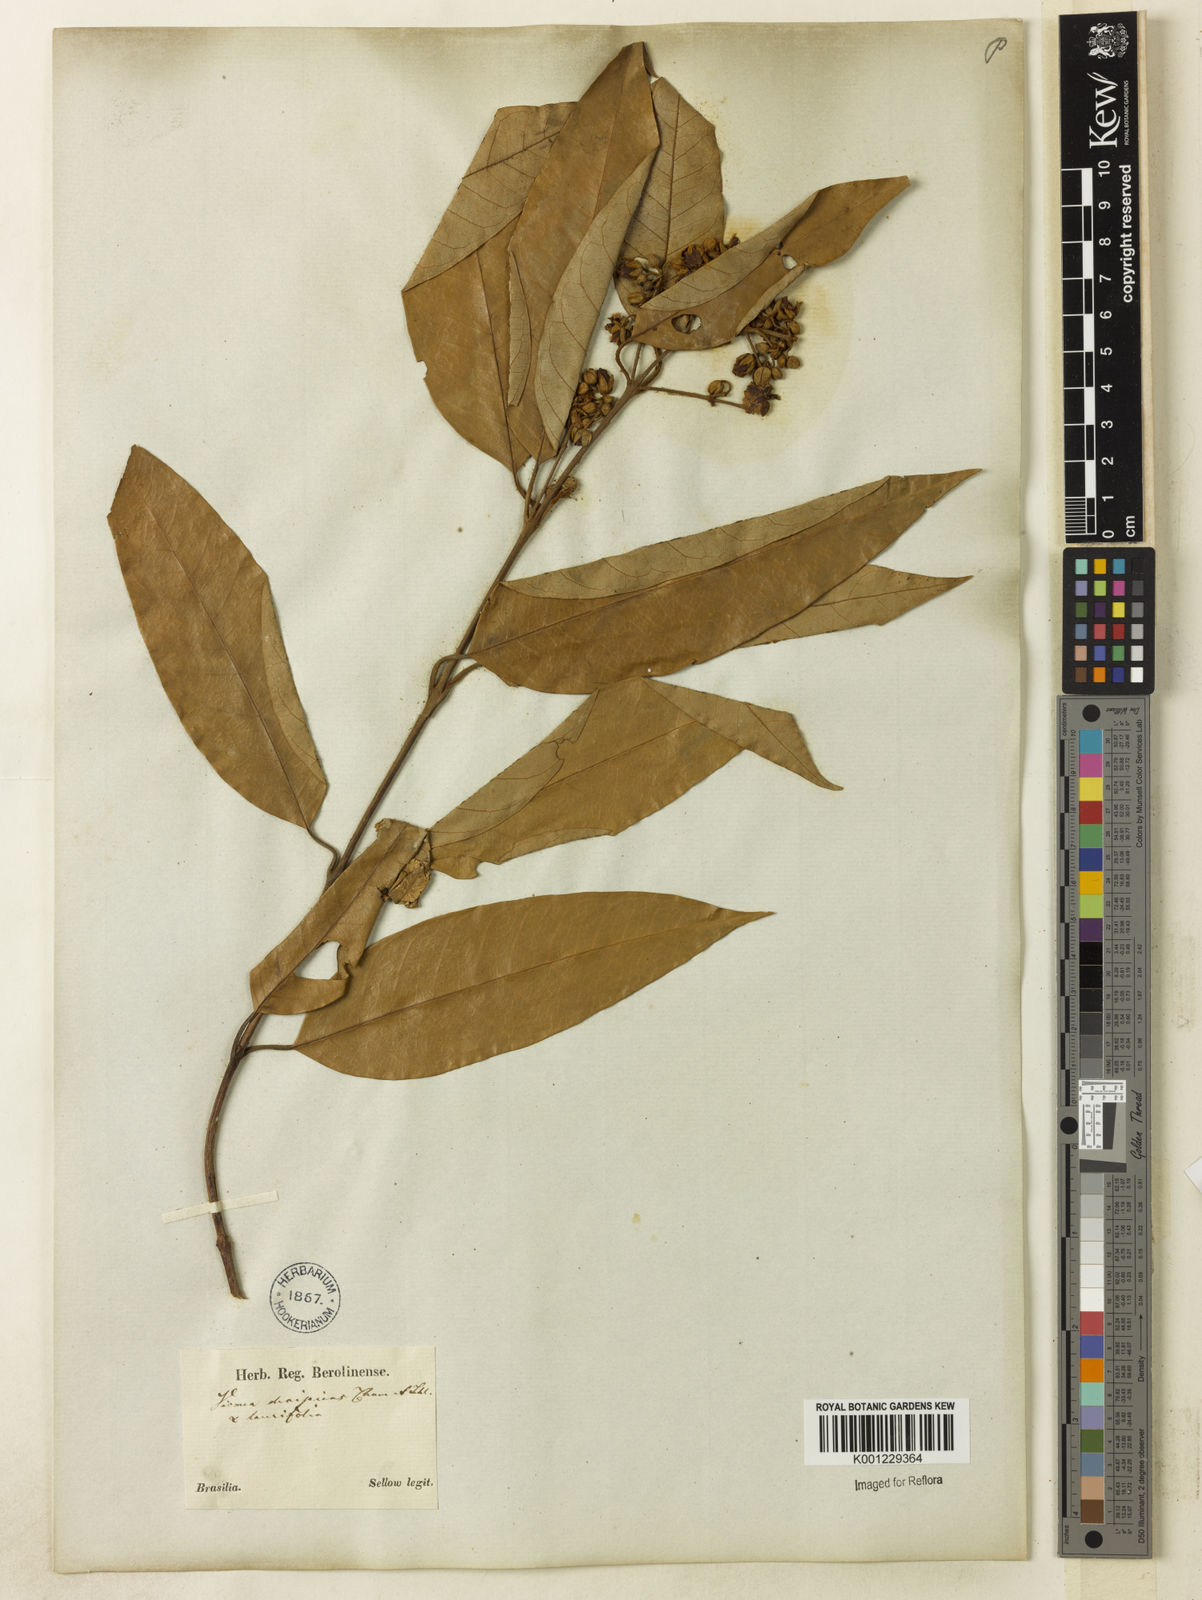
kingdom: Plantae
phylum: Tracheophyta
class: Magnoliopsida
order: Malpighiales
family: Hypericaceae
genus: Vismia
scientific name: Vismia gracilis
